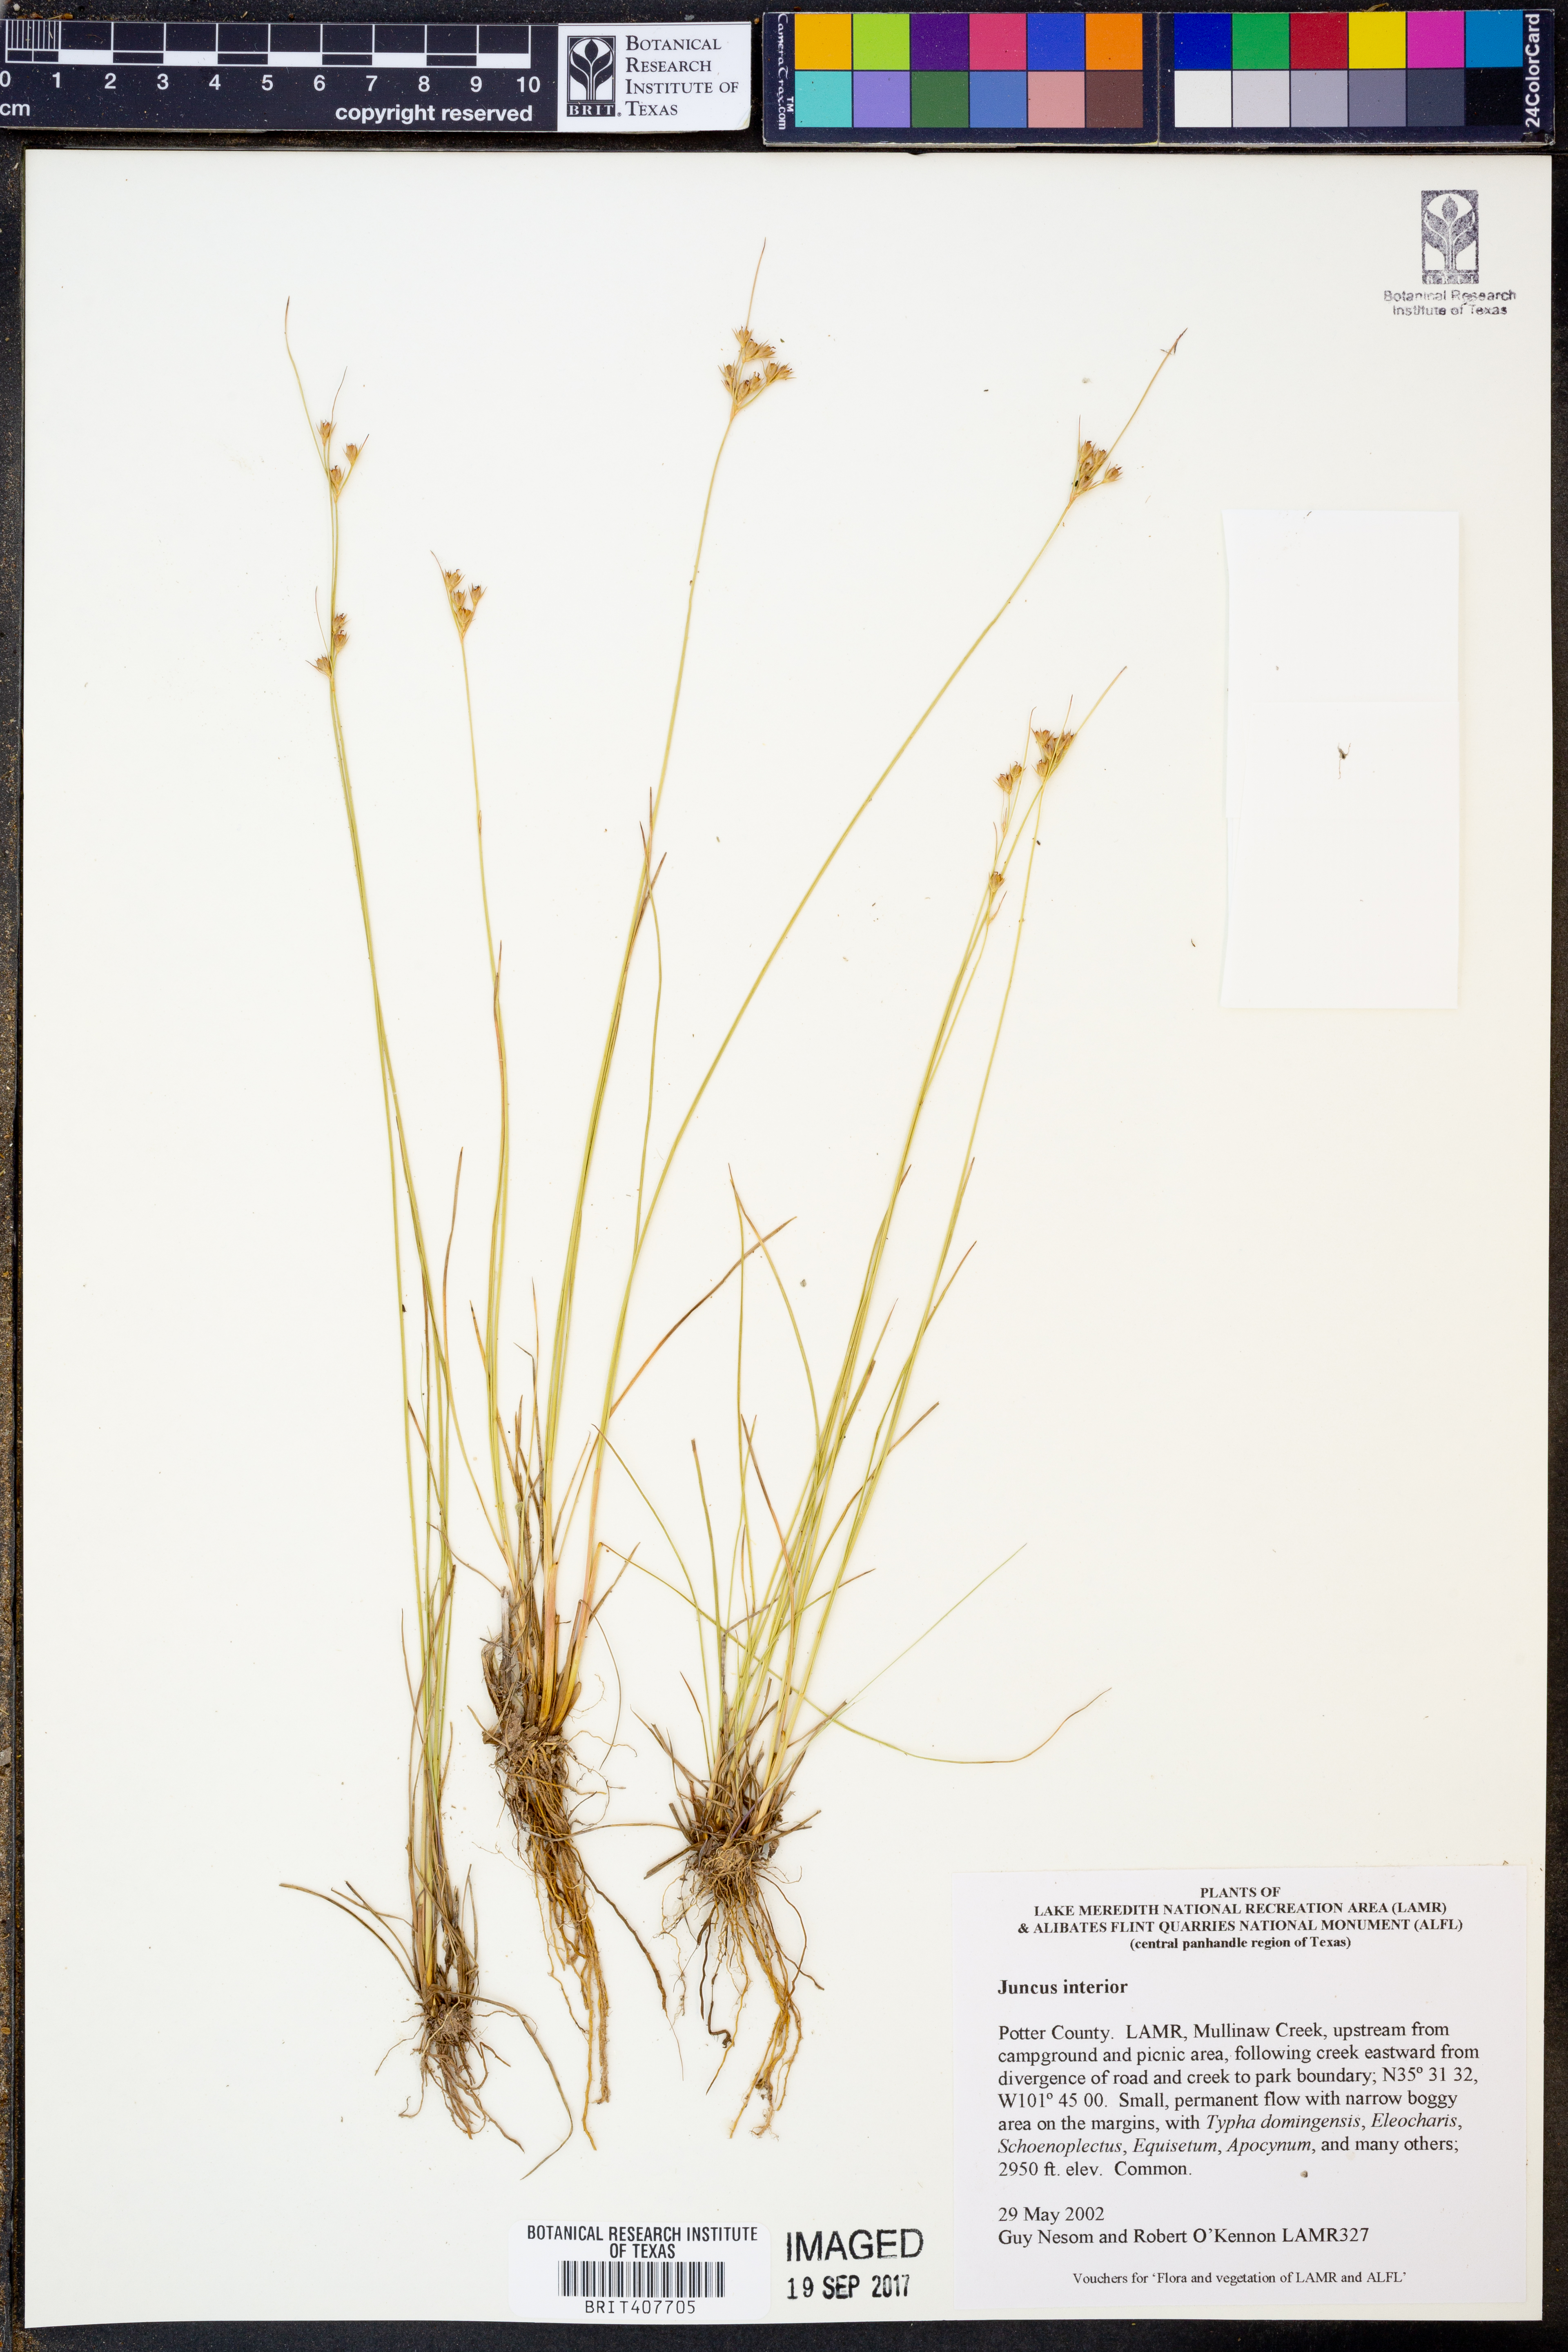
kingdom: Plantae
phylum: Tracheophyta
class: Liliopsida
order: Poales
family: Juncaceae
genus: Juncus
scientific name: Juncus interior
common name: Interior rush
